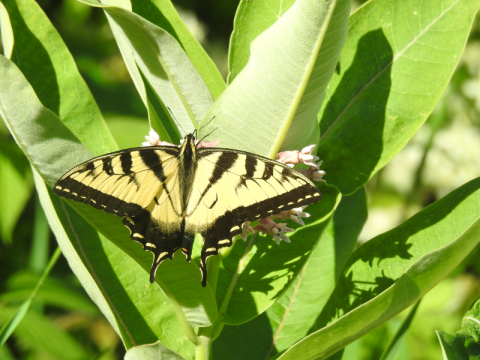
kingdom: Animalia
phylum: Arthropoda
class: Insecta
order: Lepidoptera
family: Papilionidae
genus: Pterourus
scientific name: Pterourus canadensis
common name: Canadian Tiger Swallowtail
